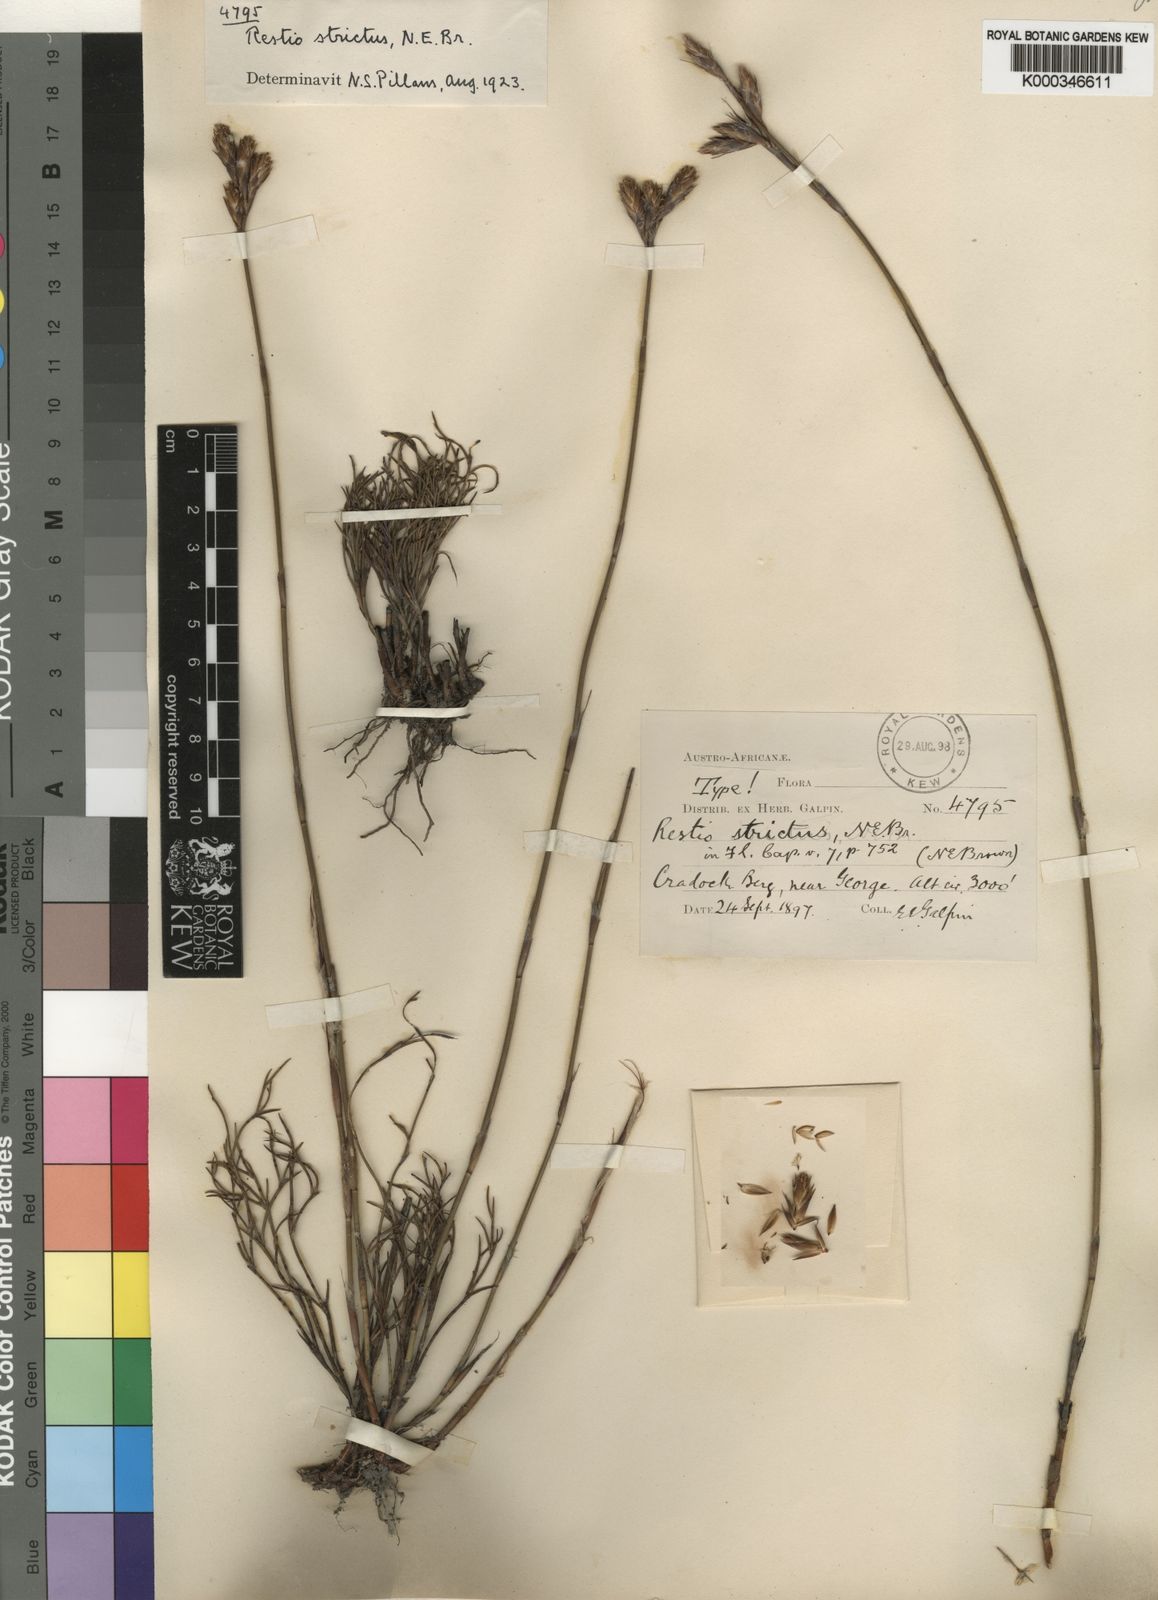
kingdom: Plantae
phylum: Tracheophyta
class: Liliopsida
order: Poales
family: Restionaceae
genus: Restio
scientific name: Restio strictus
